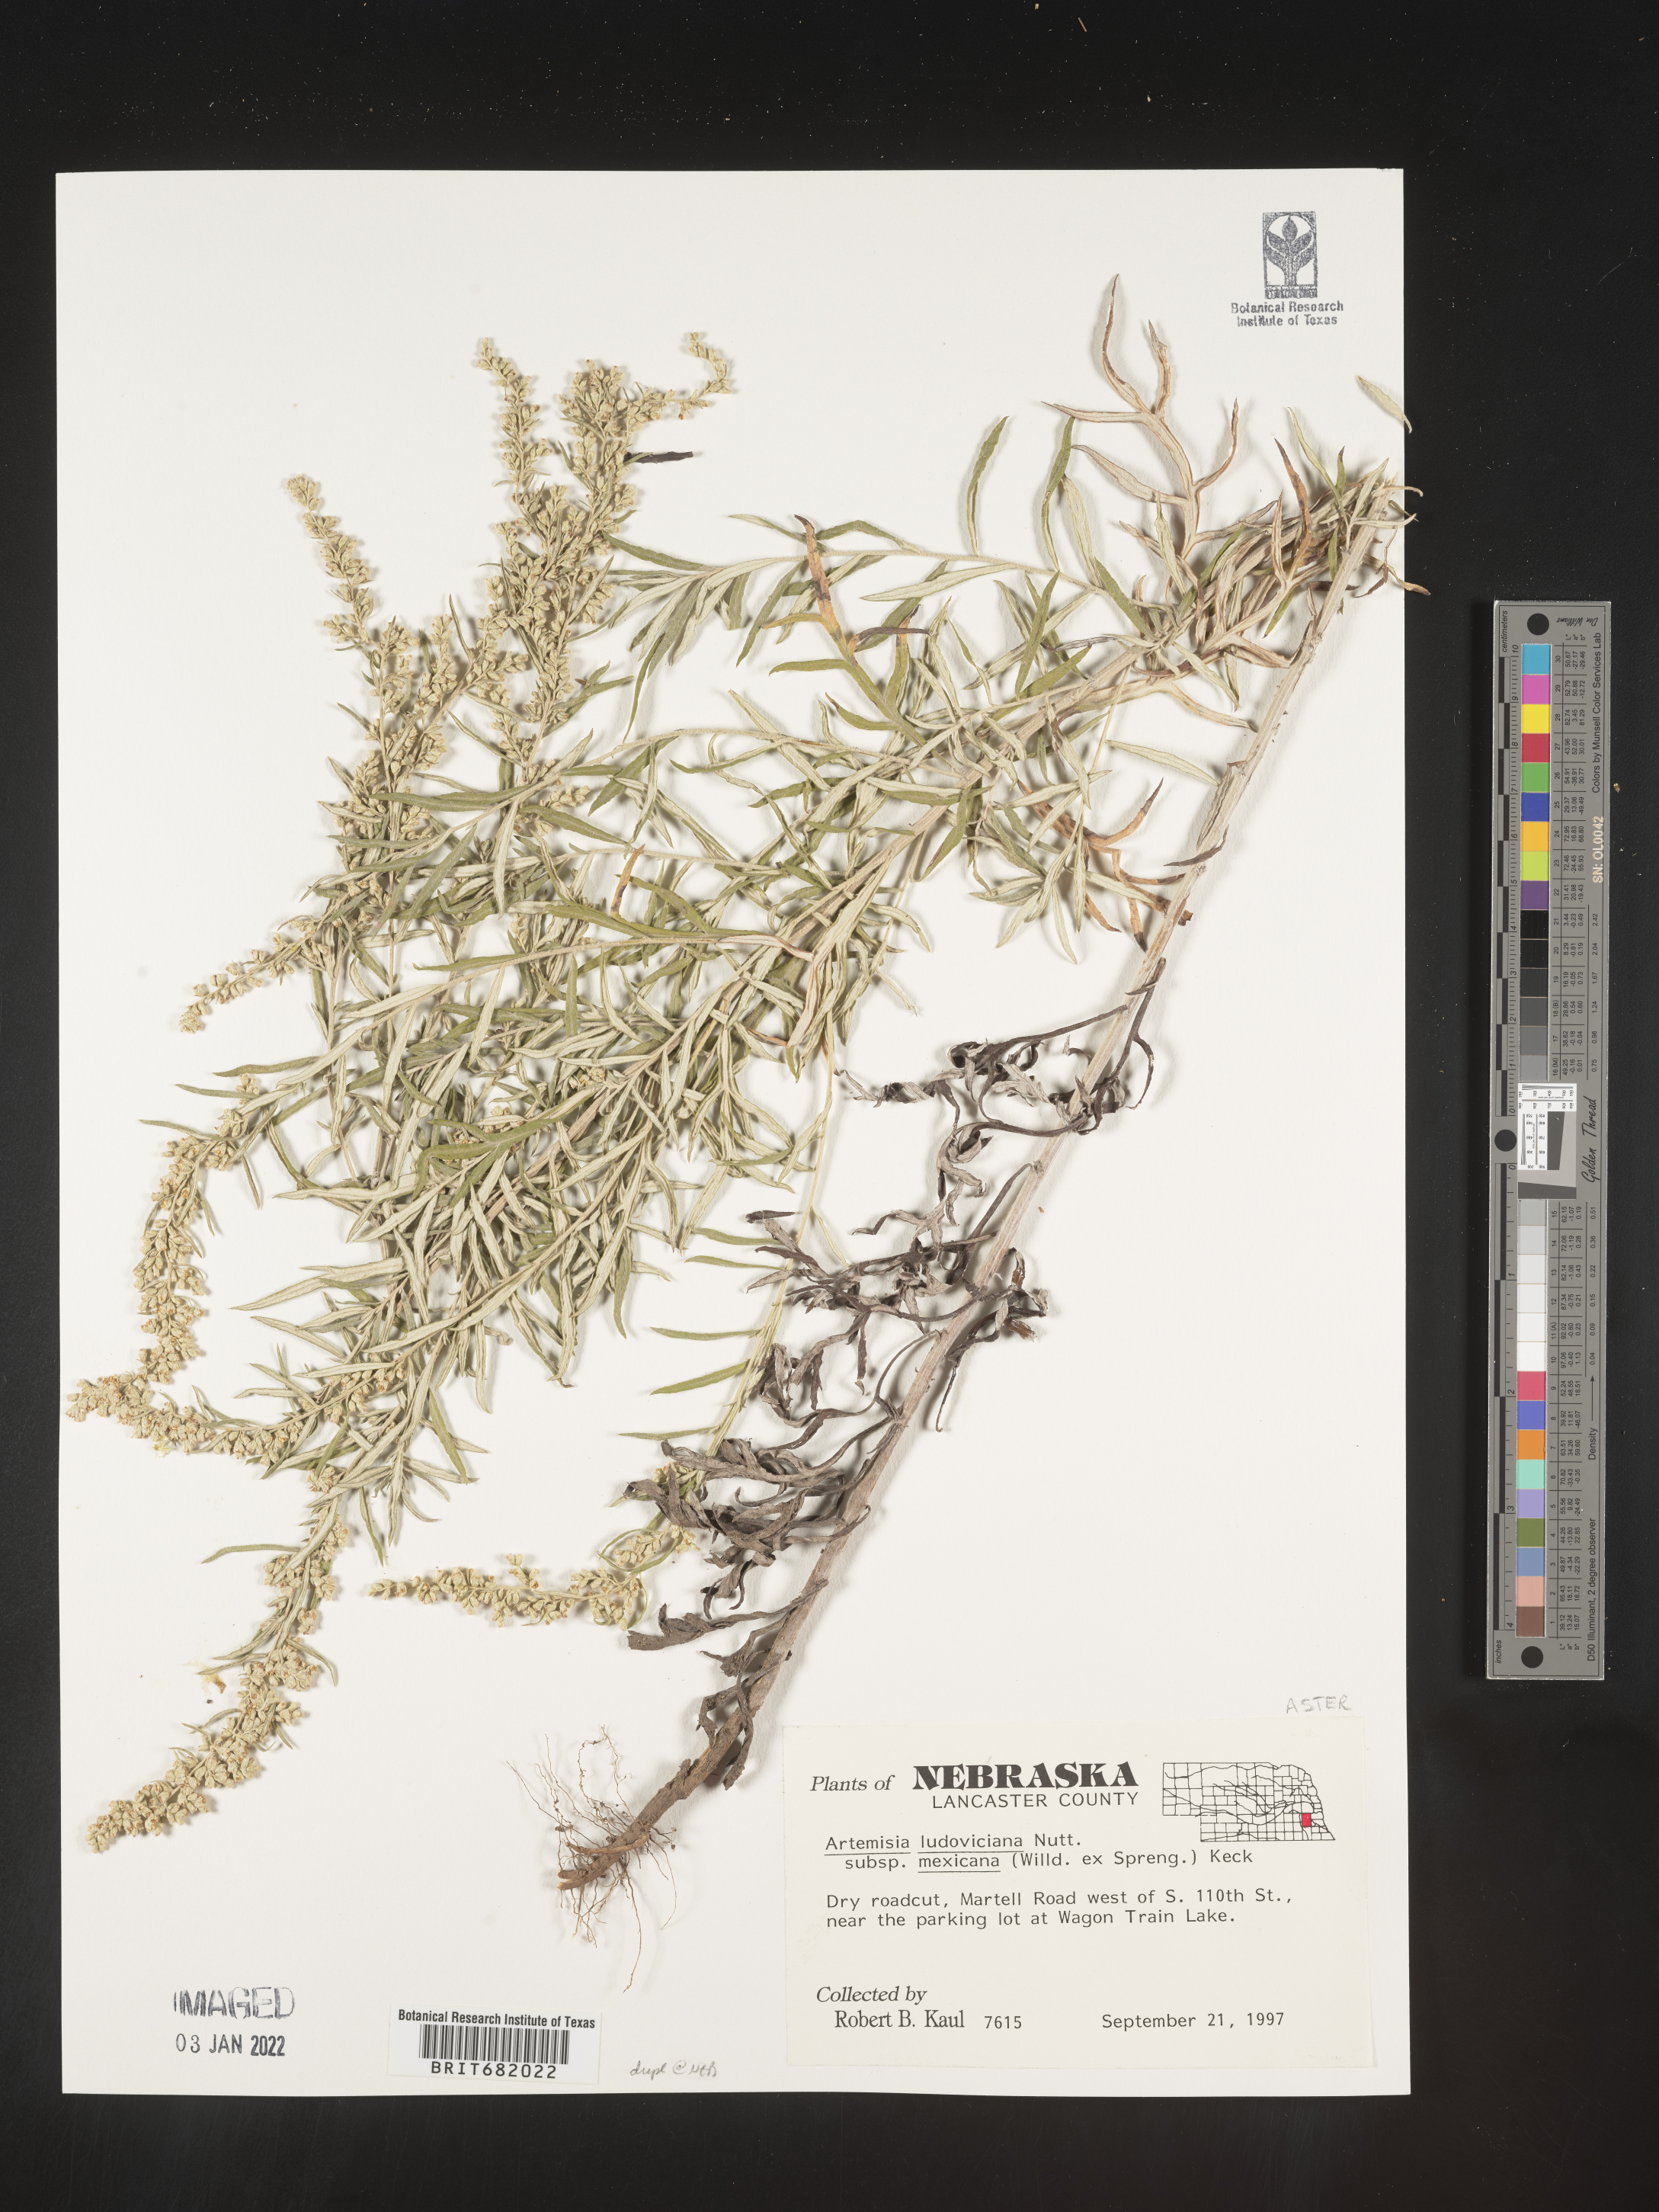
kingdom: Plantae
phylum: Tracheophyta
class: Magnoliopsida
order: Asterales
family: Asteraceae
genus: Artemisia
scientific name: Artemisia ludoviciana
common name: Western mugwort
